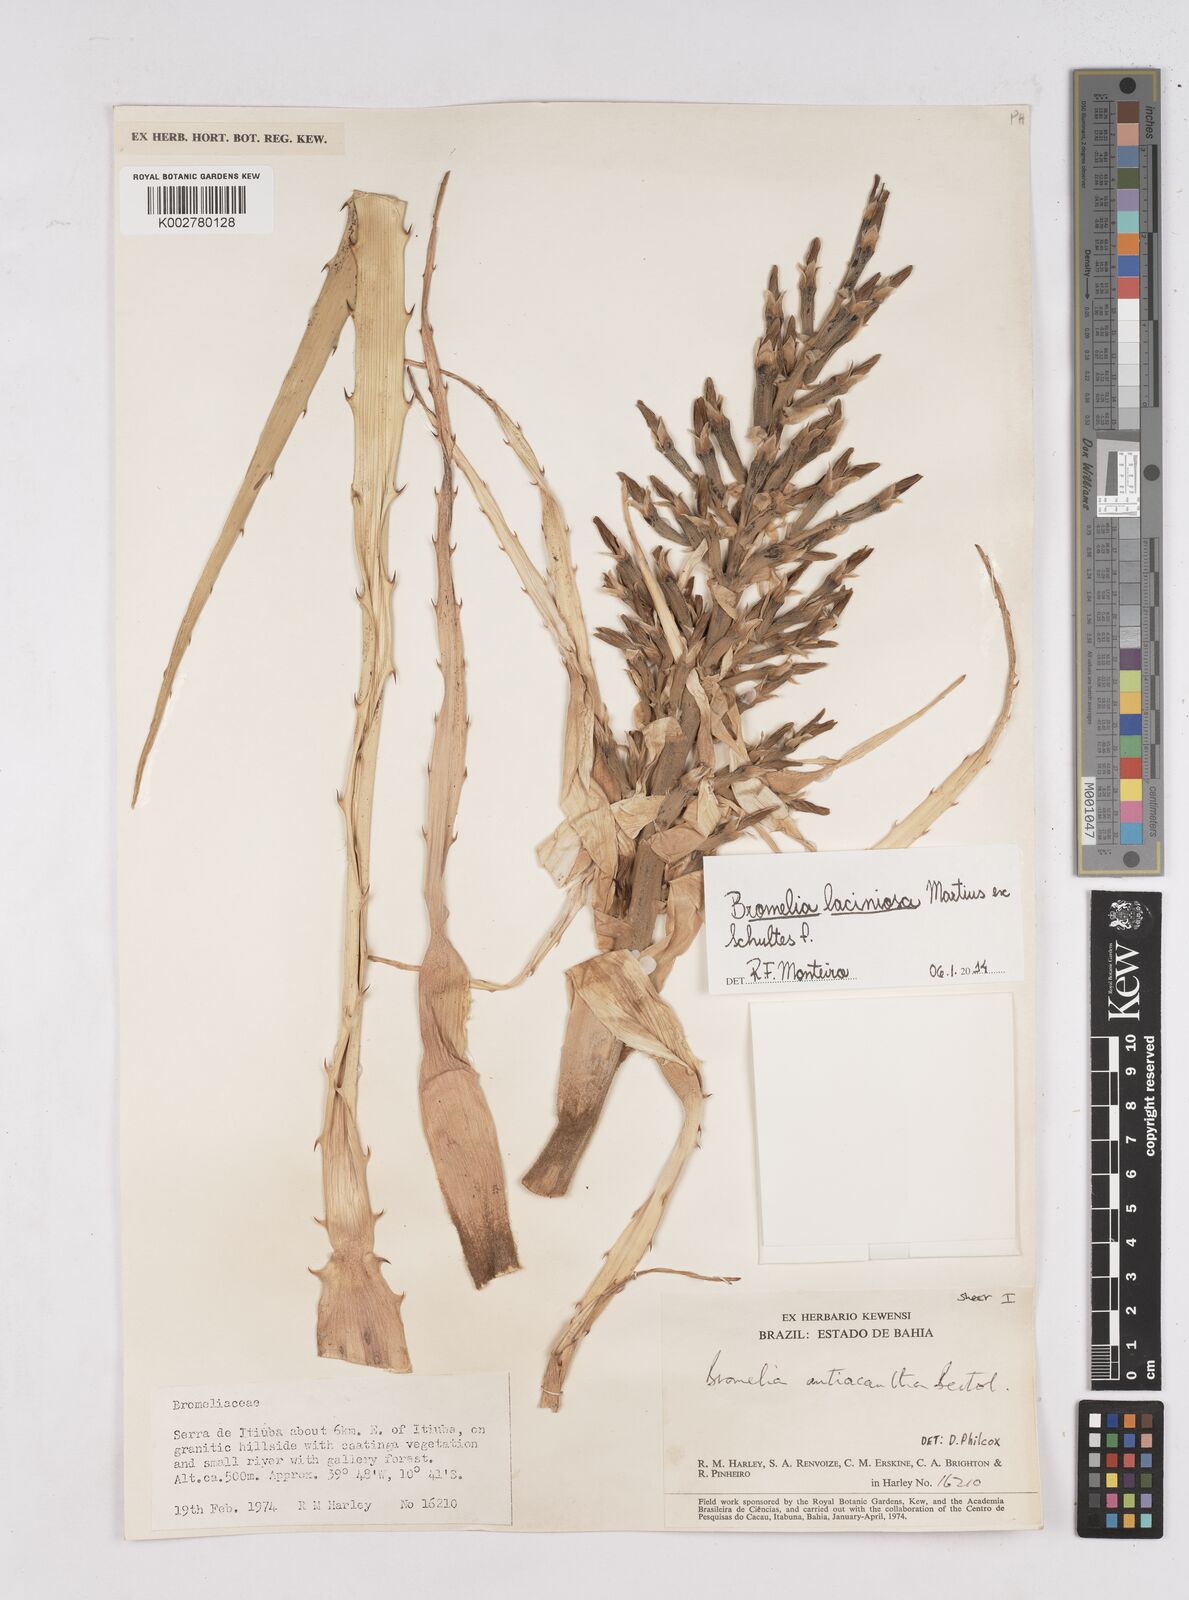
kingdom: Plantae
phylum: Tracheophyta
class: Liliopsida
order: Poales
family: Bromeliaceae
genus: Bromelia
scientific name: Bromelia laciniosa
